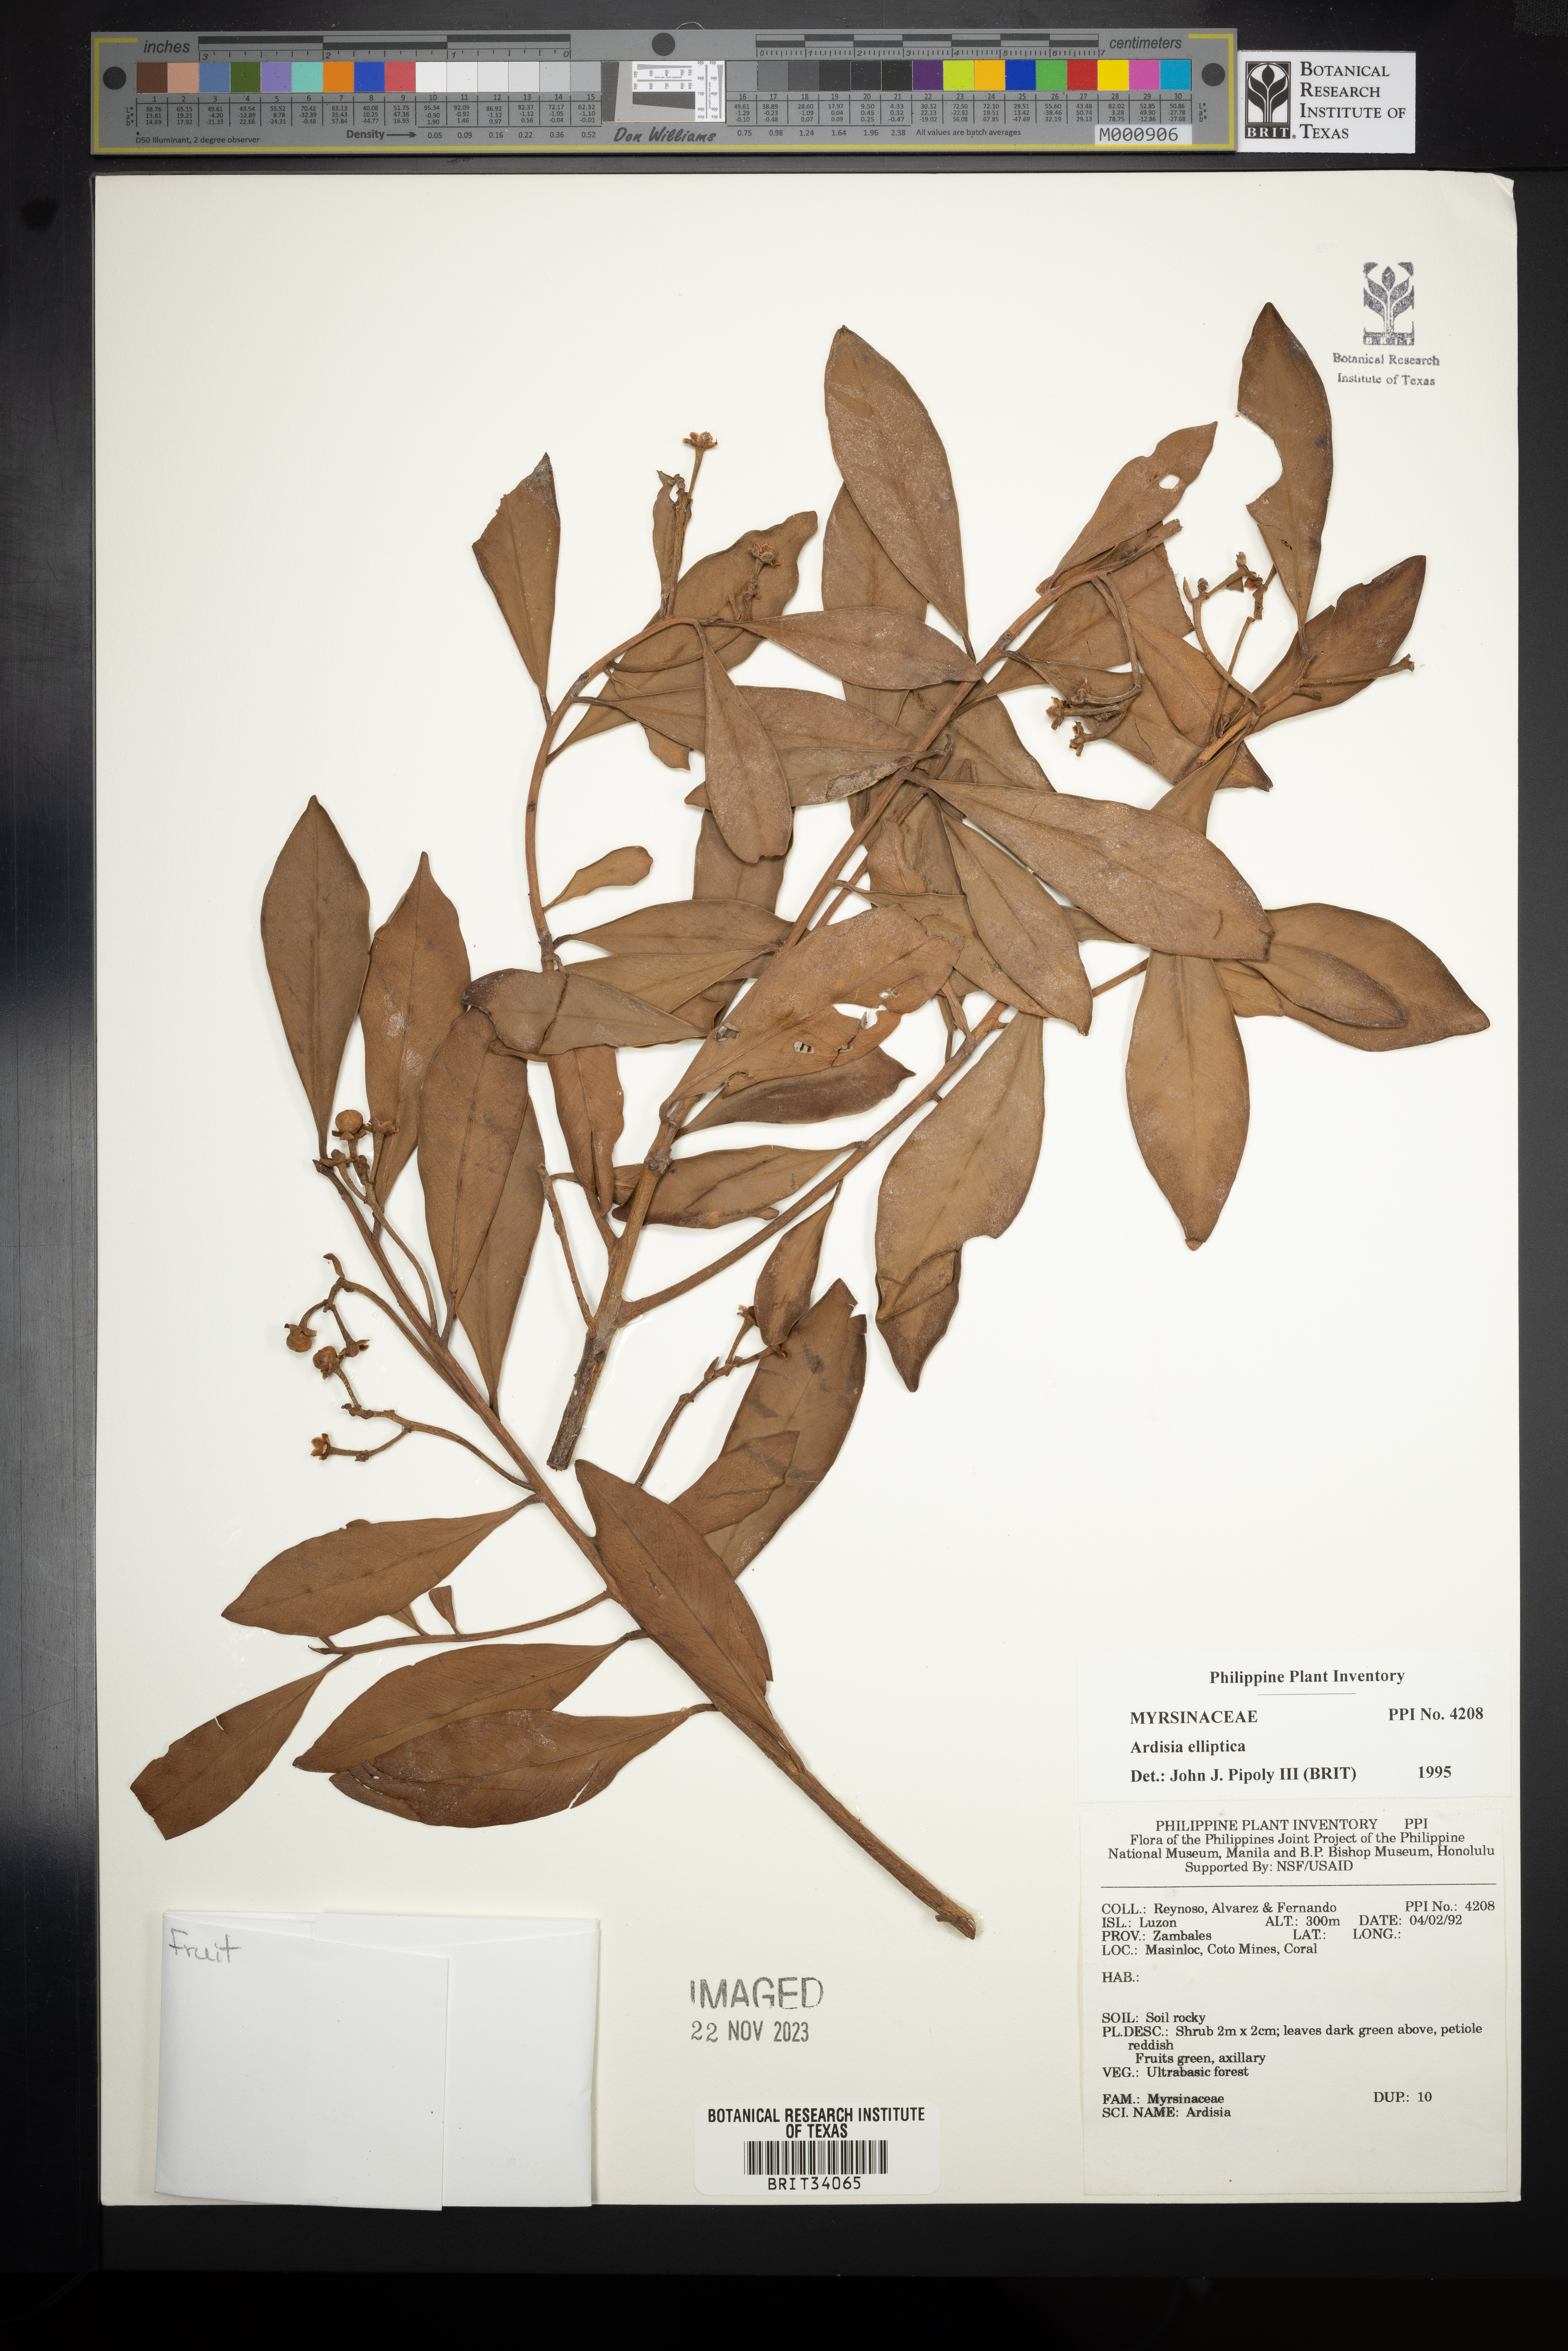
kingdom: Plantae
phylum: Tracheophyta
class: Magnoliopsida
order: Ericales
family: Primulaceae
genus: Ardisia
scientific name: Ardisia elliptica
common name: Shoebutton
